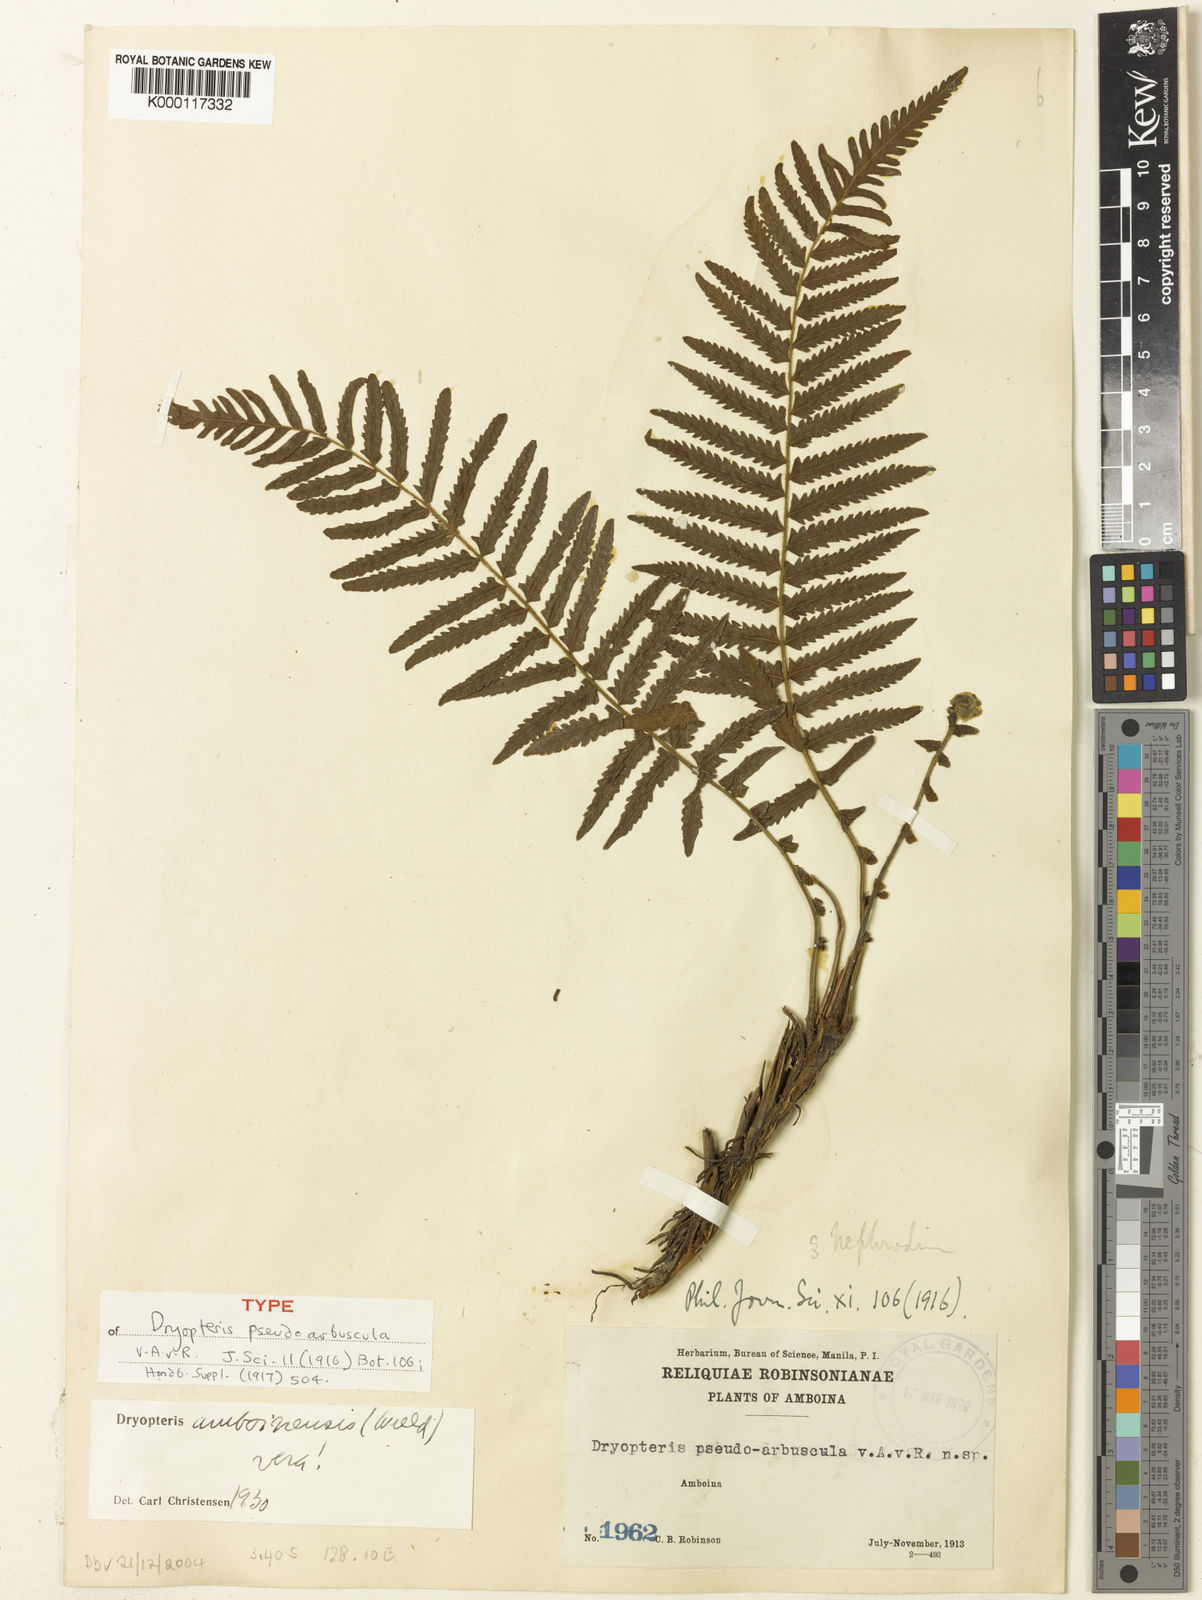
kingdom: Plantae
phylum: Tracheophyta
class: Polypodiopsida
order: Polypodiales
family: Thelypteridaceae
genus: Sphaerostephanos
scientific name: Sphaerostephanos acrostichoides
